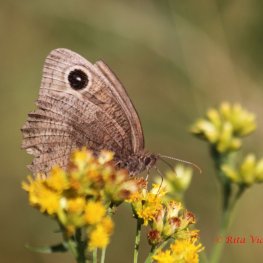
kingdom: Animalia
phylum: Arthropoda
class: Insecta
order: Lepidoptera
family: Nymphalidae
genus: Cercyonis
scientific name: Cercyonis pegala
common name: Common Wood-Nymph
